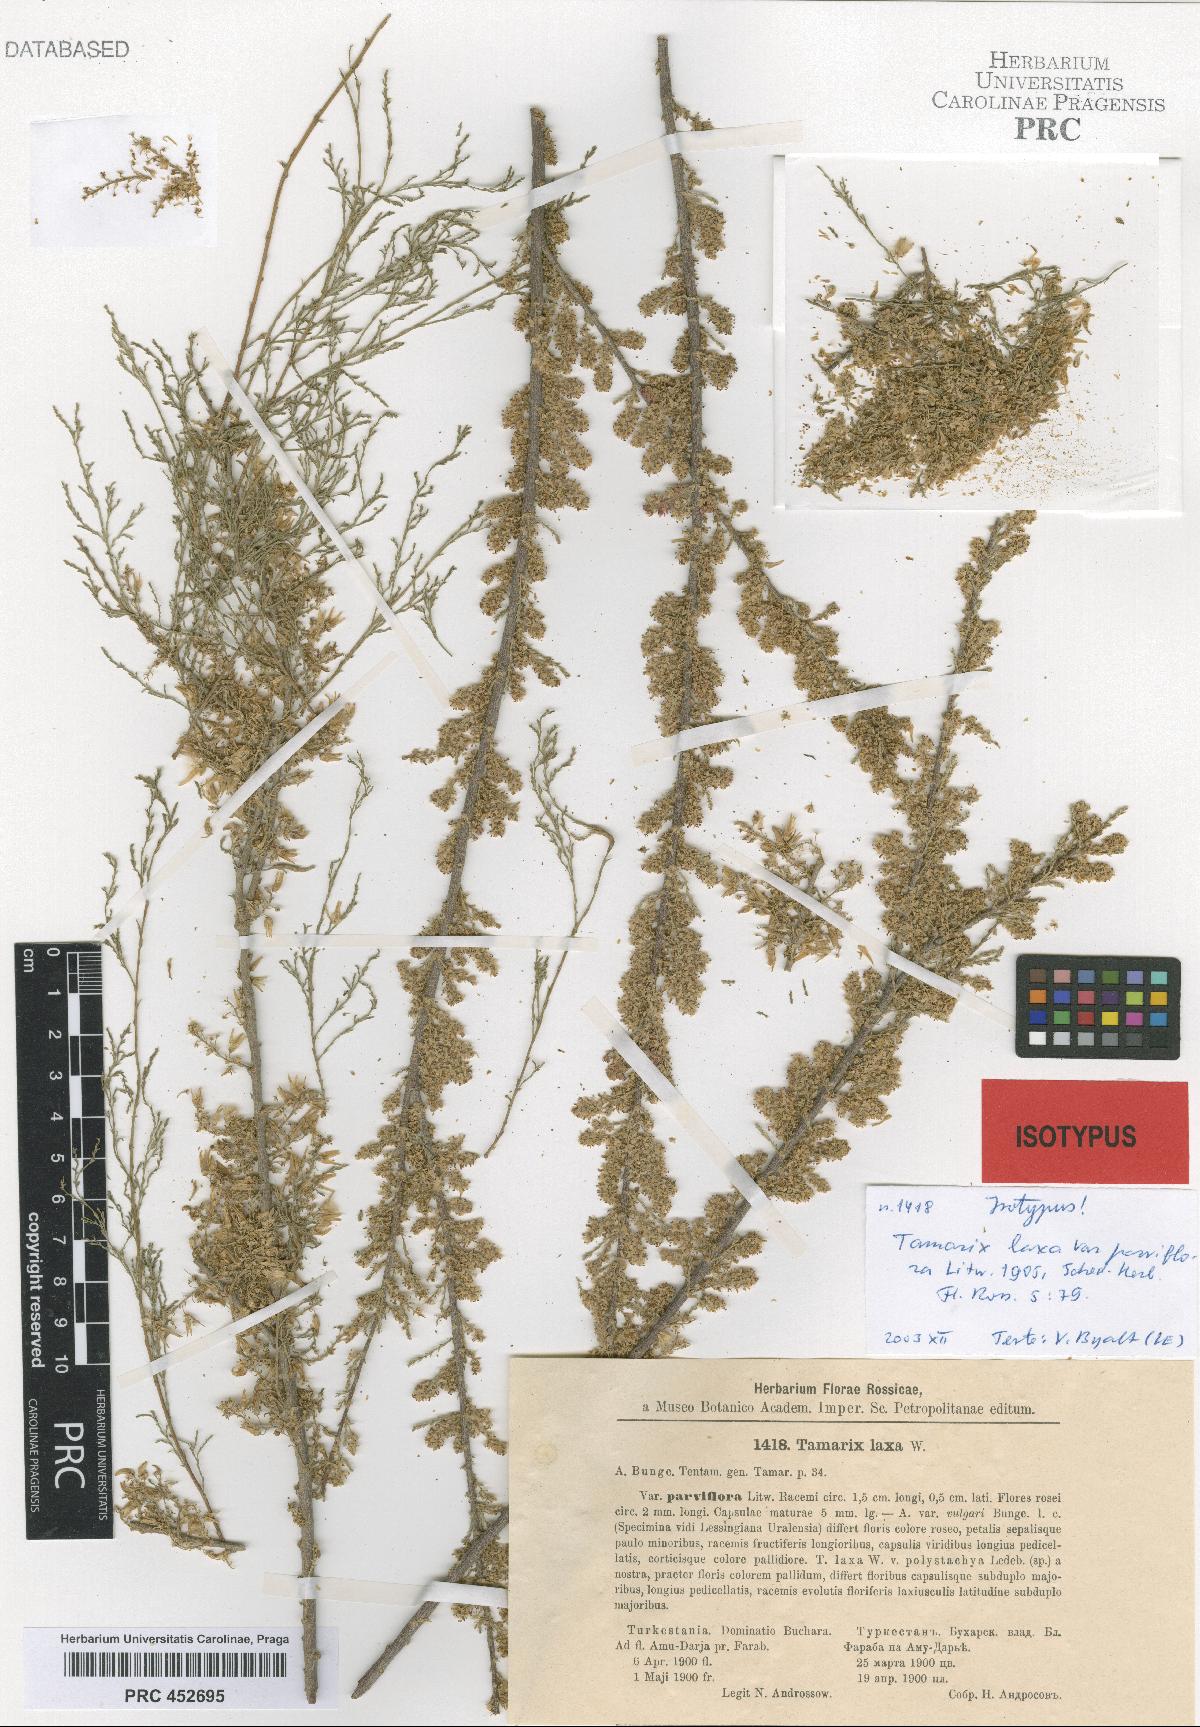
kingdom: Plantae
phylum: Tracheophyta
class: Magnoliopsida
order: Caryophyllales
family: Tamaricaceae
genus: Tamarix
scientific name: Tamarix laxa
